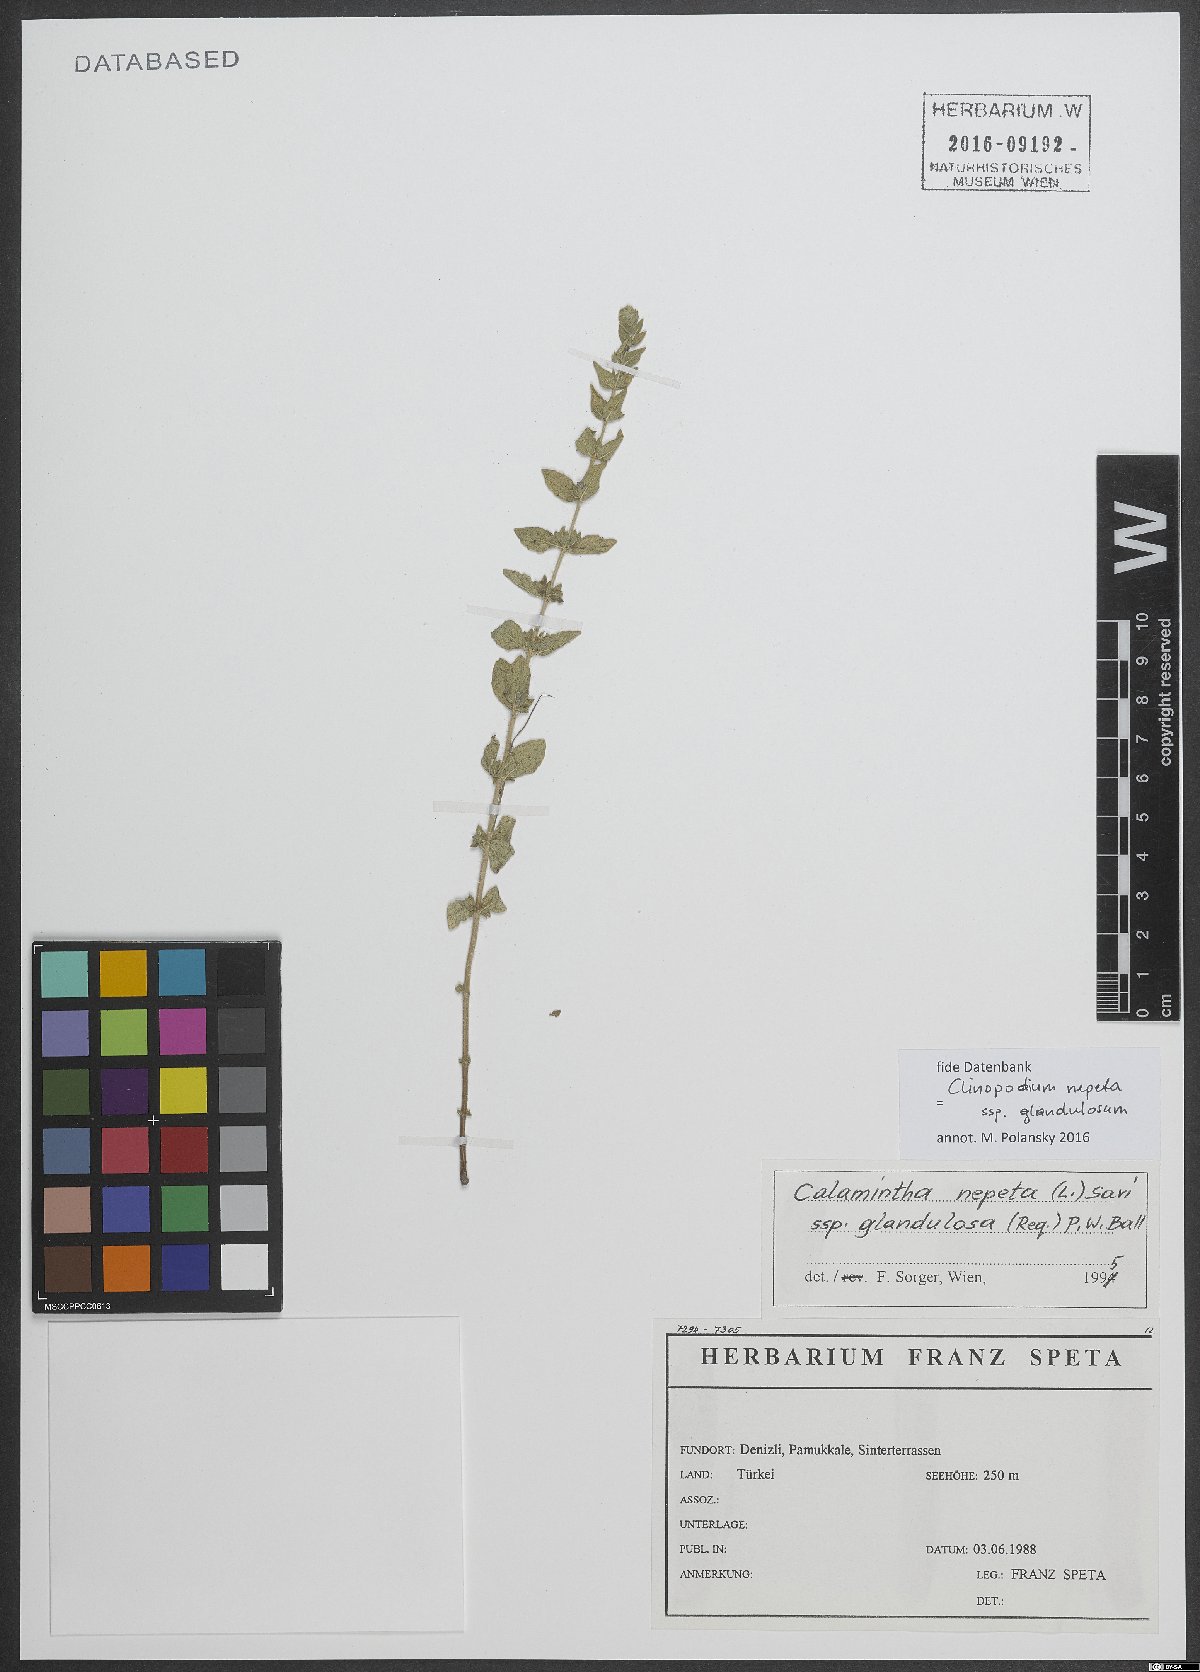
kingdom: Plantae
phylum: Tracheophyta
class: Magnoliopsida
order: Lamiales
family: Lamiaceae
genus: Clinopodium
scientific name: Clinopodium nepeta
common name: Lesser calamint
